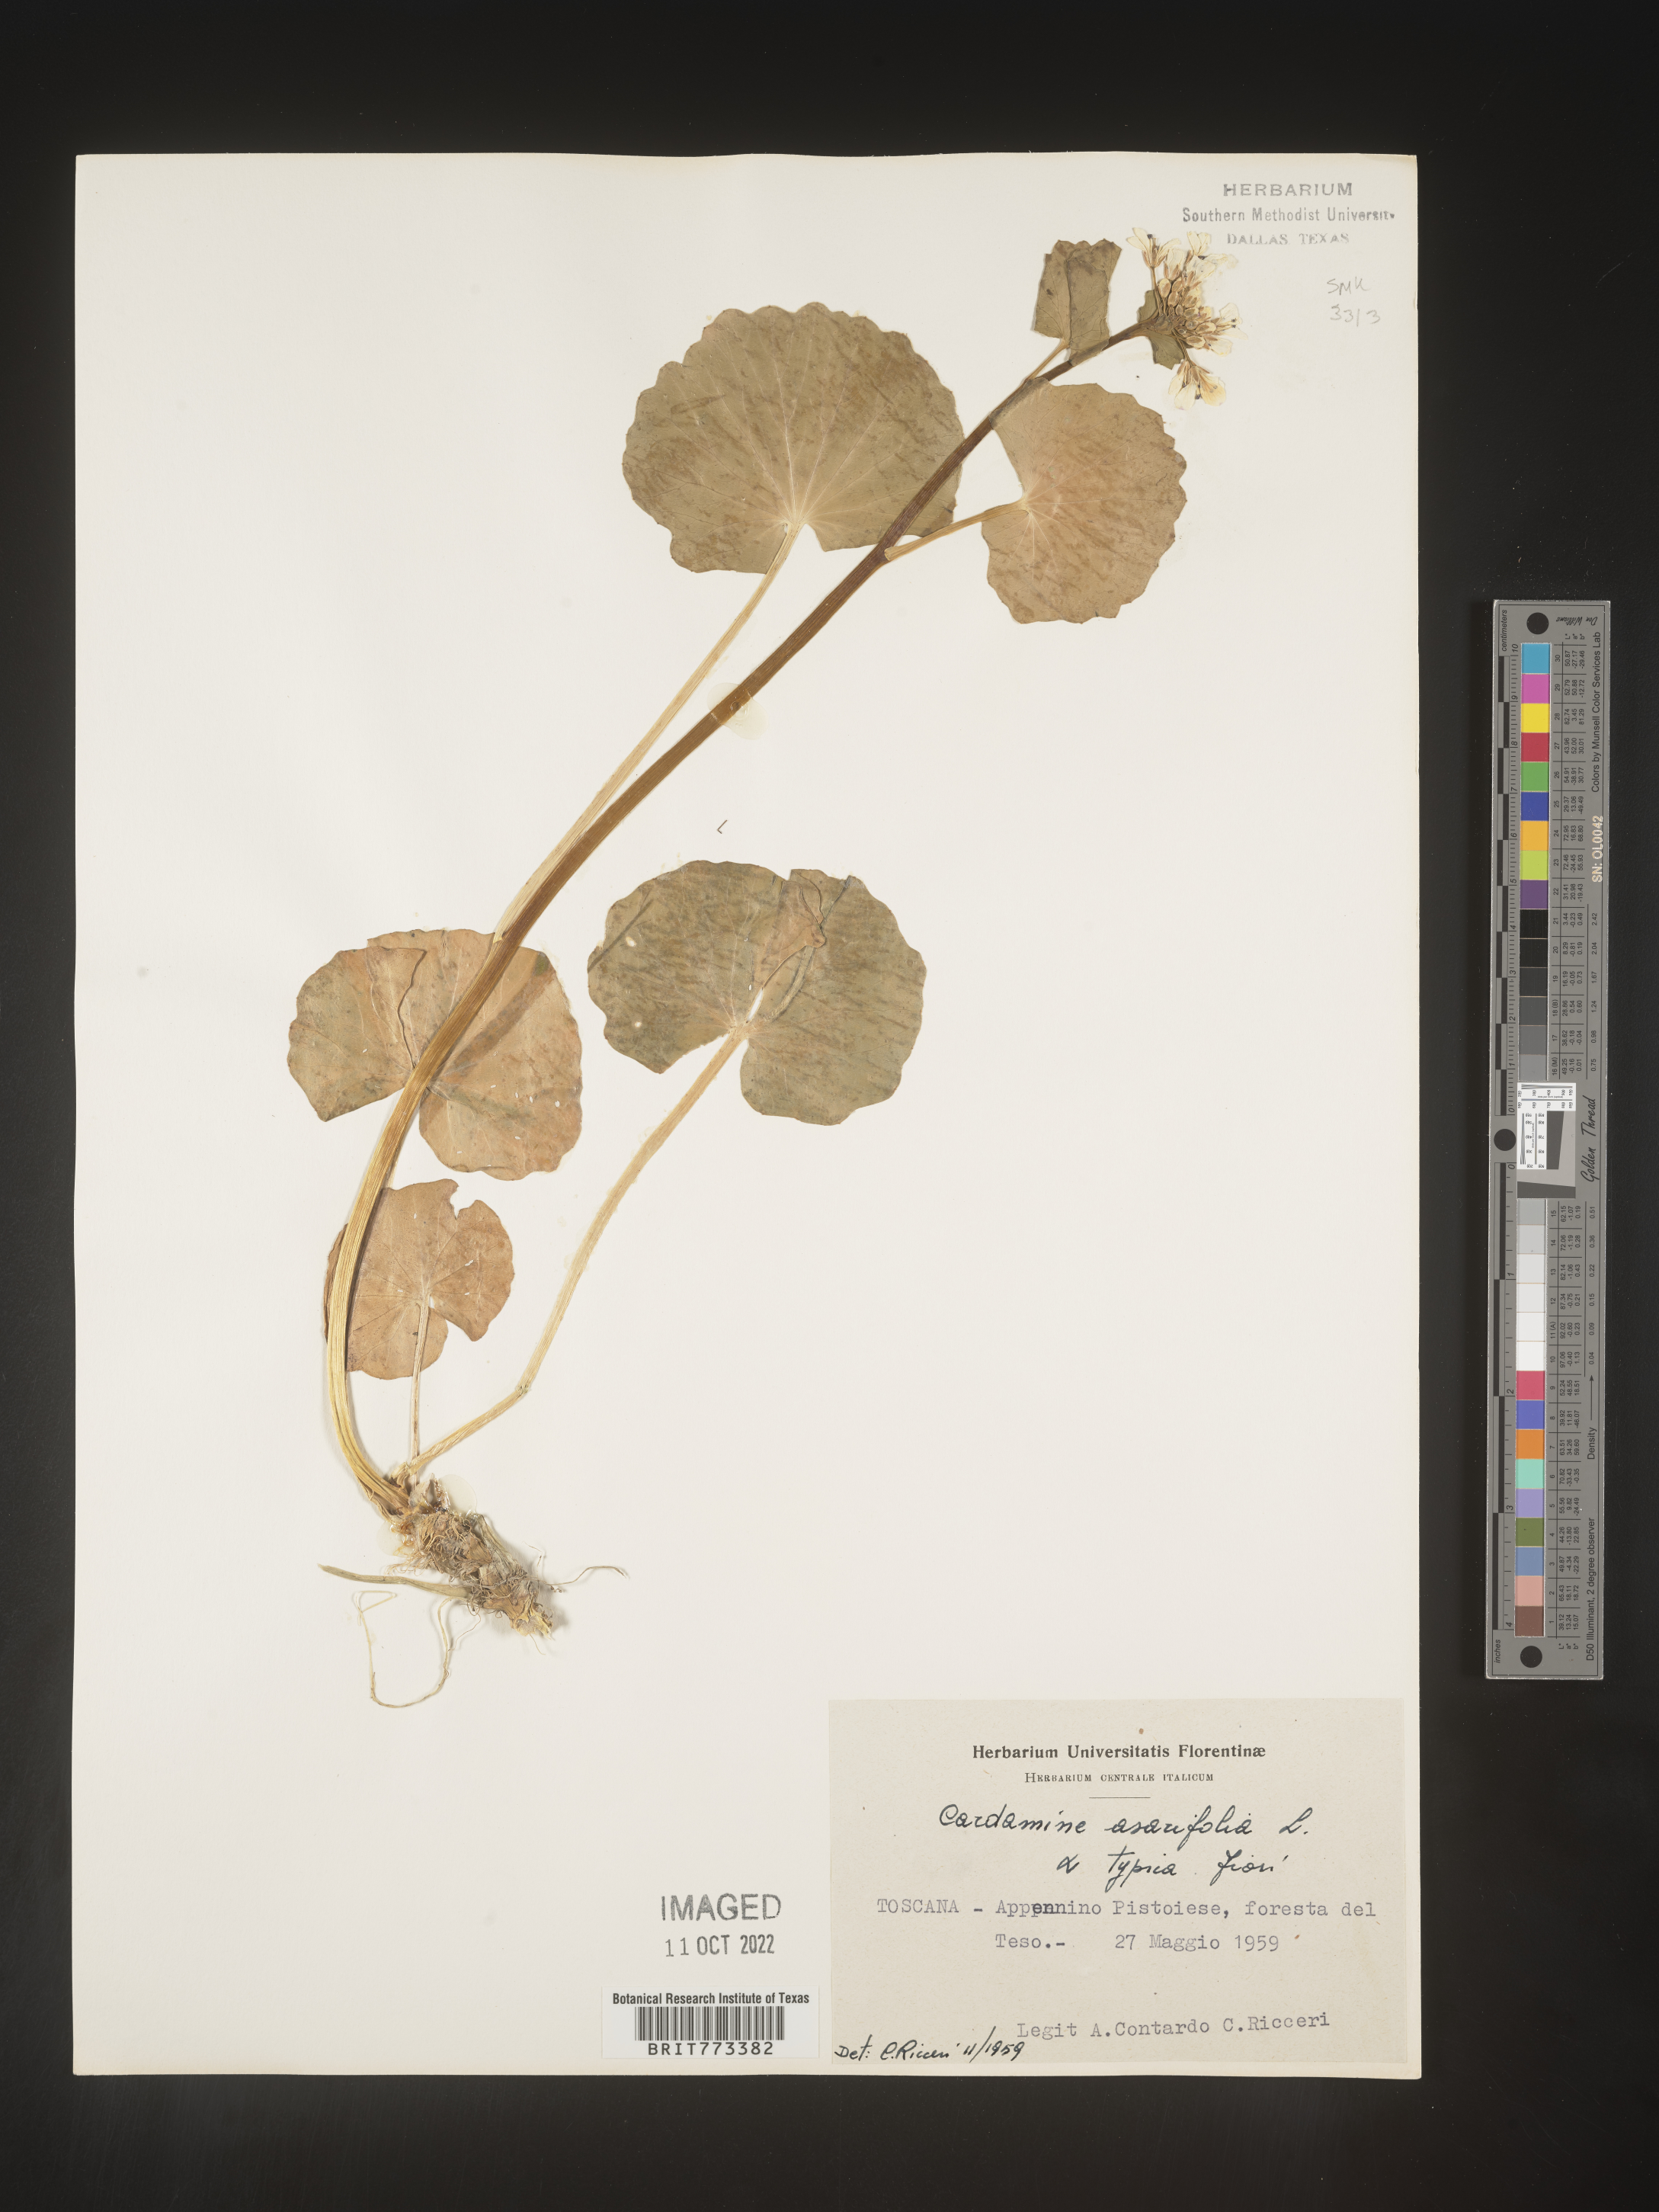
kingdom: Plantae
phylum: Tracheophyta
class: Magnoliopsida
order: Brassicales
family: Brassicaceae
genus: Cardamine
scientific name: Cardamine
